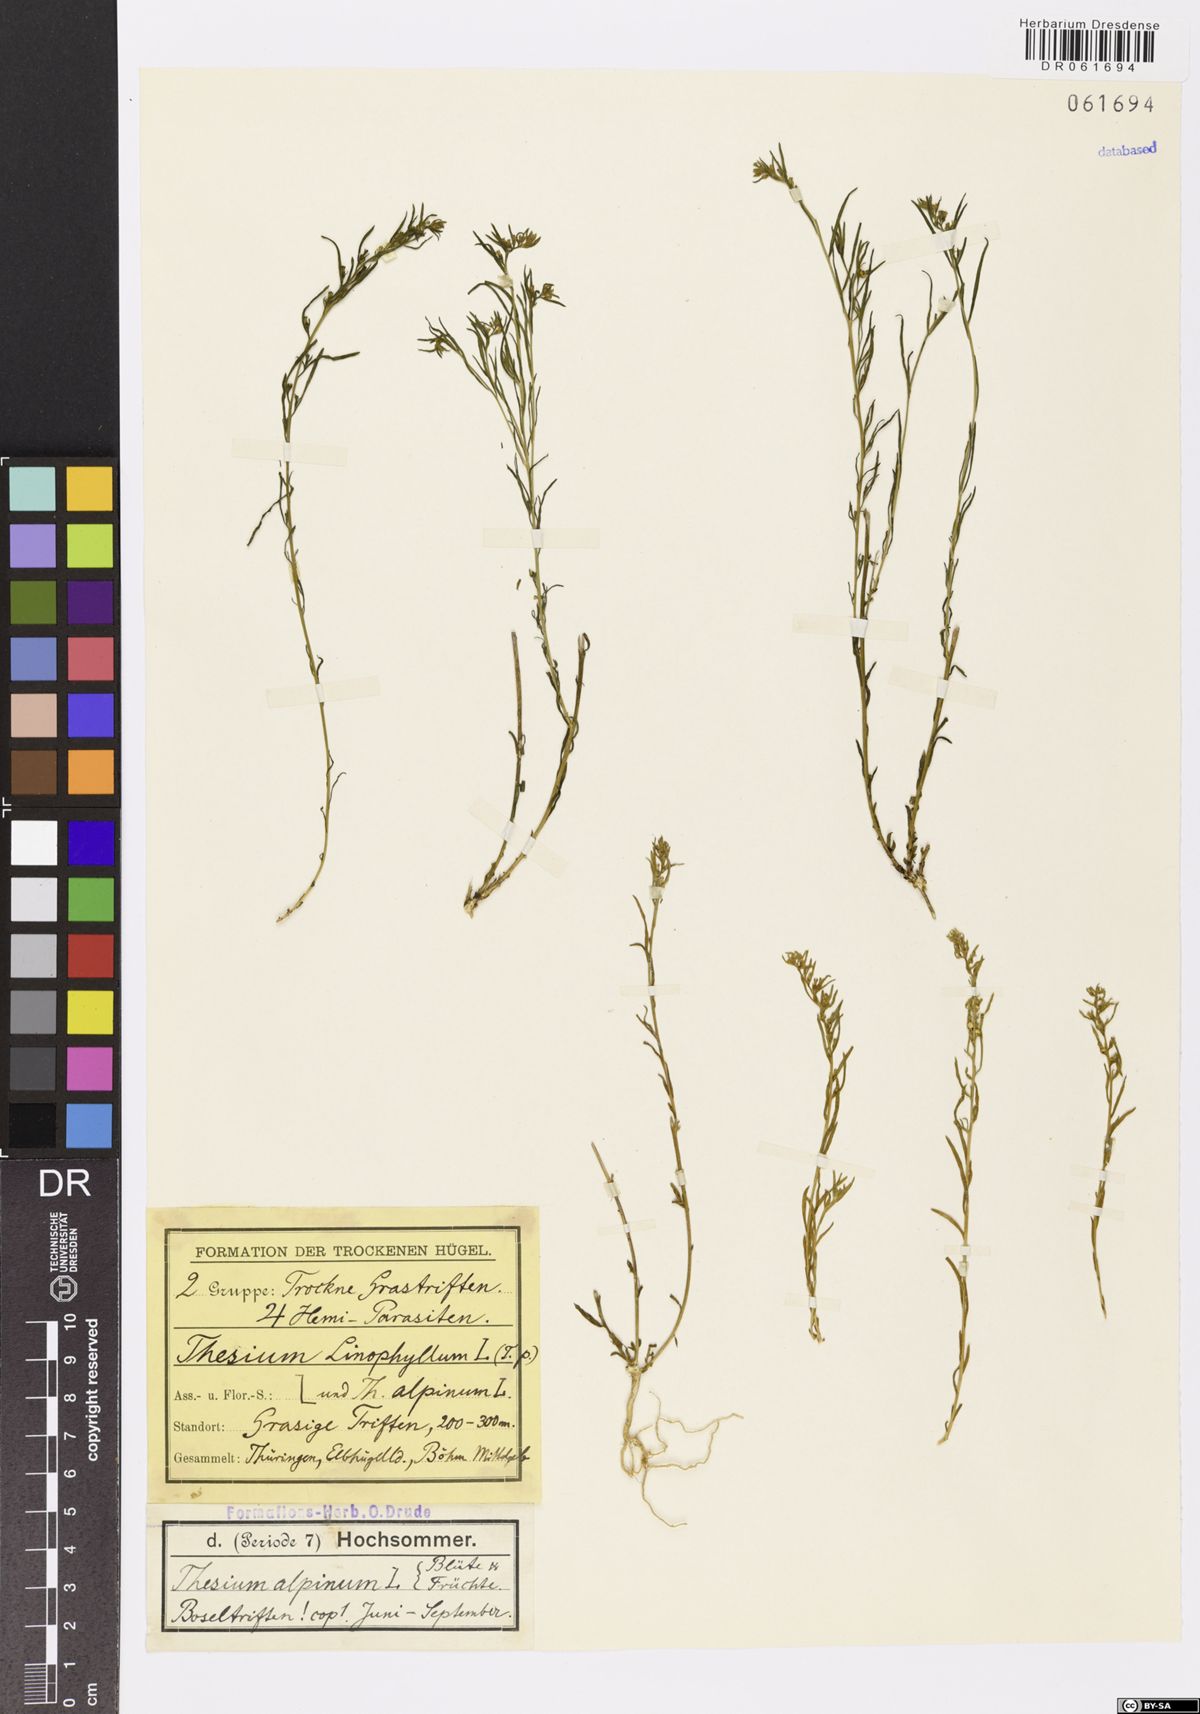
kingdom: Plantae
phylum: Tracheophyta
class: Magnoliopsida
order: Santalales
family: Thesiaceae
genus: Thesium
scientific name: Thesium alpinum
